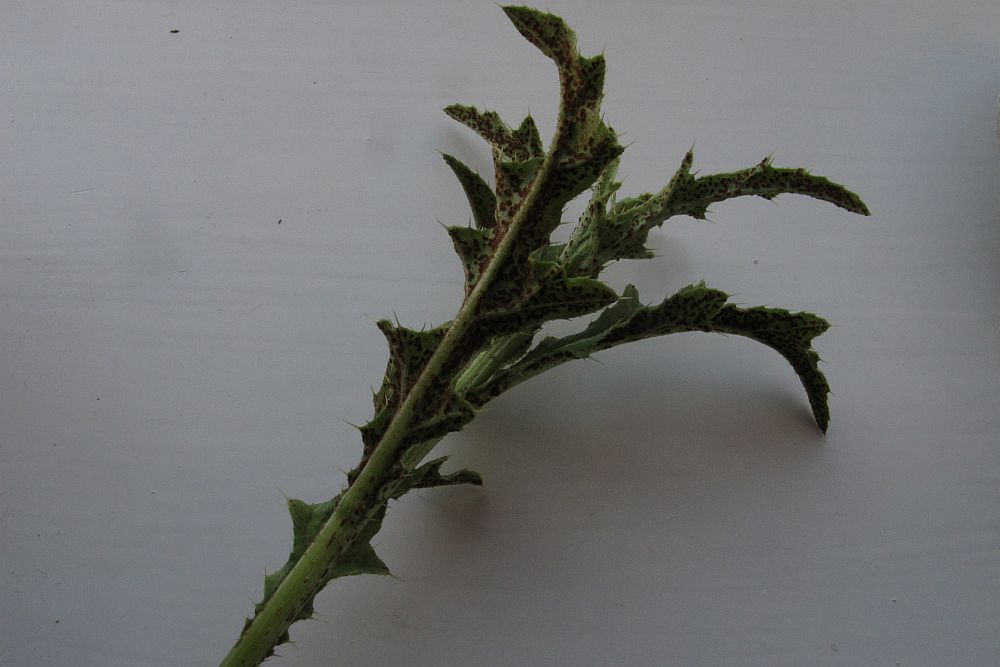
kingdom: Fungi
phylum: Basidiomycota
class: Pucciniomycetes
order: Pucciniales
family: Pucciniaceae
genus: Puccinia
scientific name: Puccinia suaveolens
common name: tidsel-tvecellerust
